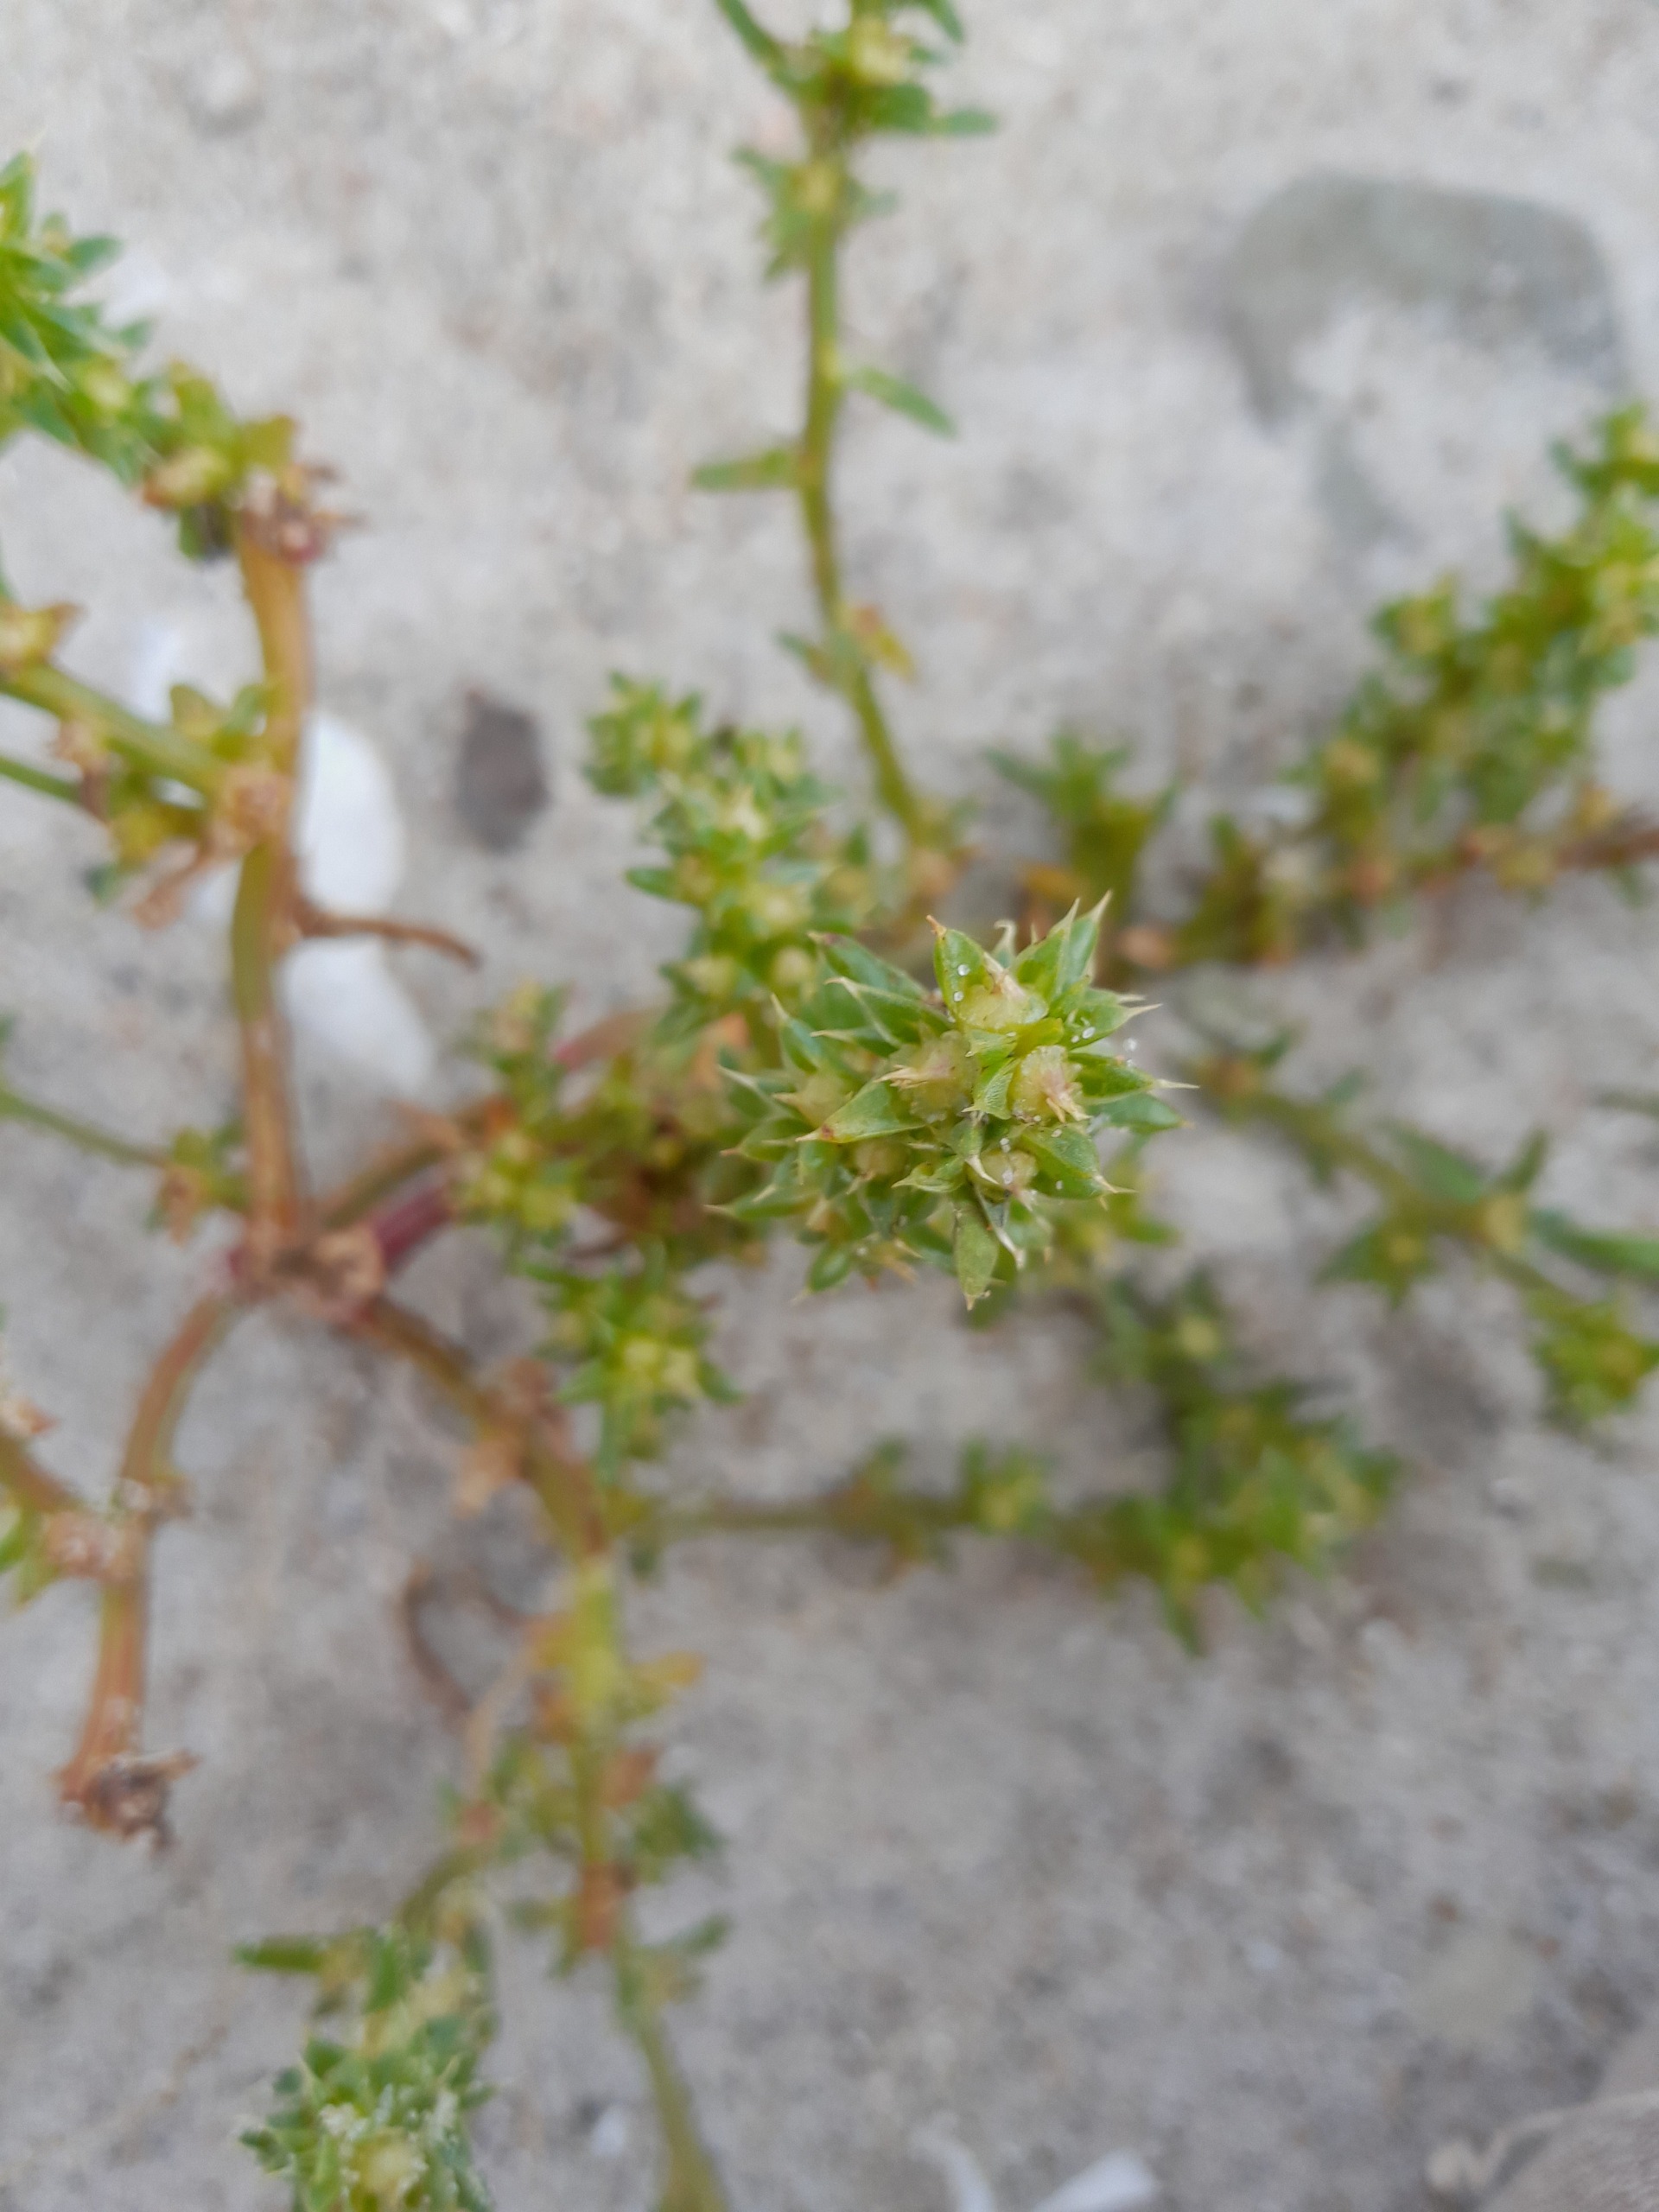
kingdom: Plantae
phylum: Tracheophyta
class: Magnoliopsida
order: Caryophyllales
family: Amaranthaceae
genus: Salsola
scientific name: Salsola kali
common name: Sodaurt
